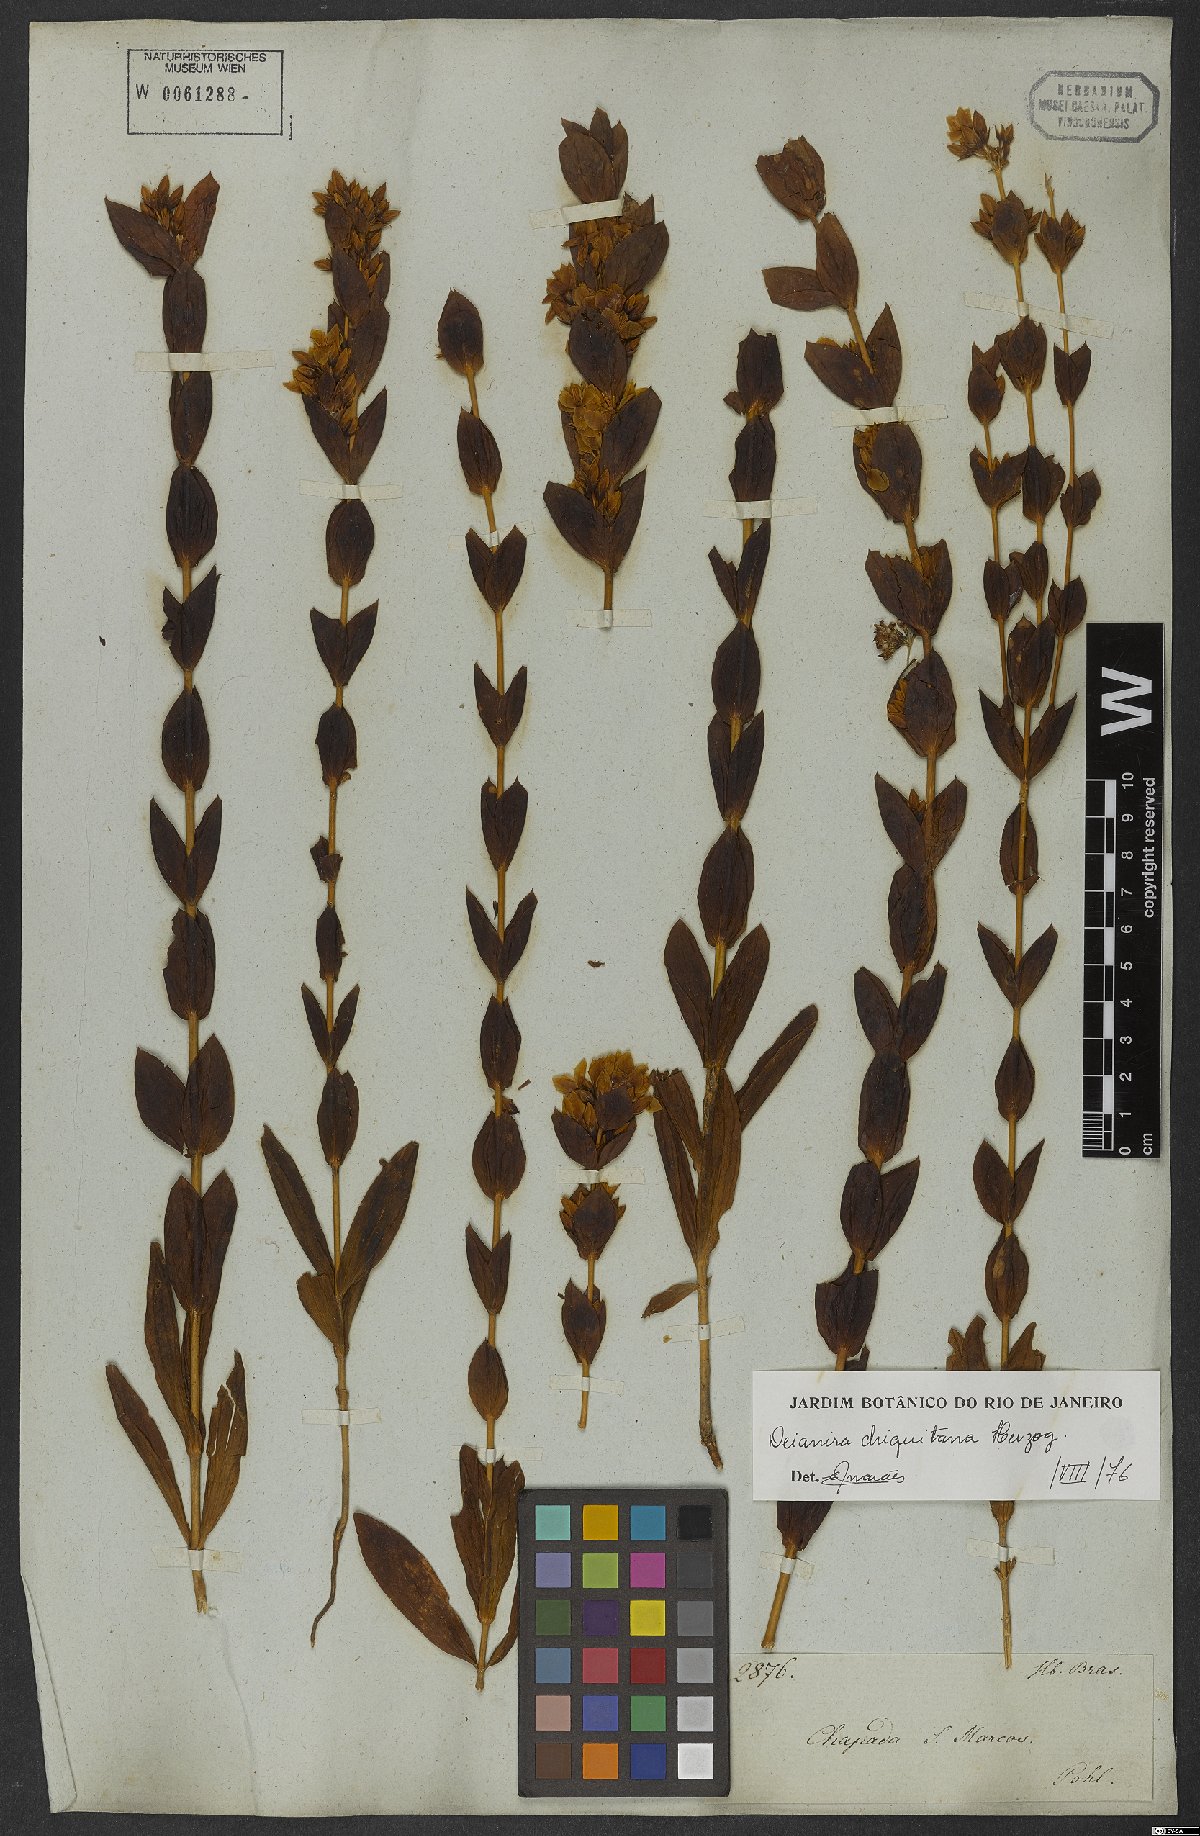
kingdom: Plantae
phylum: Tracheophyta
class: Magnoliopsida
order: Gentianales
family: Gentianaceae
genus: Deianira
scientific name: Deianira chiquitana
